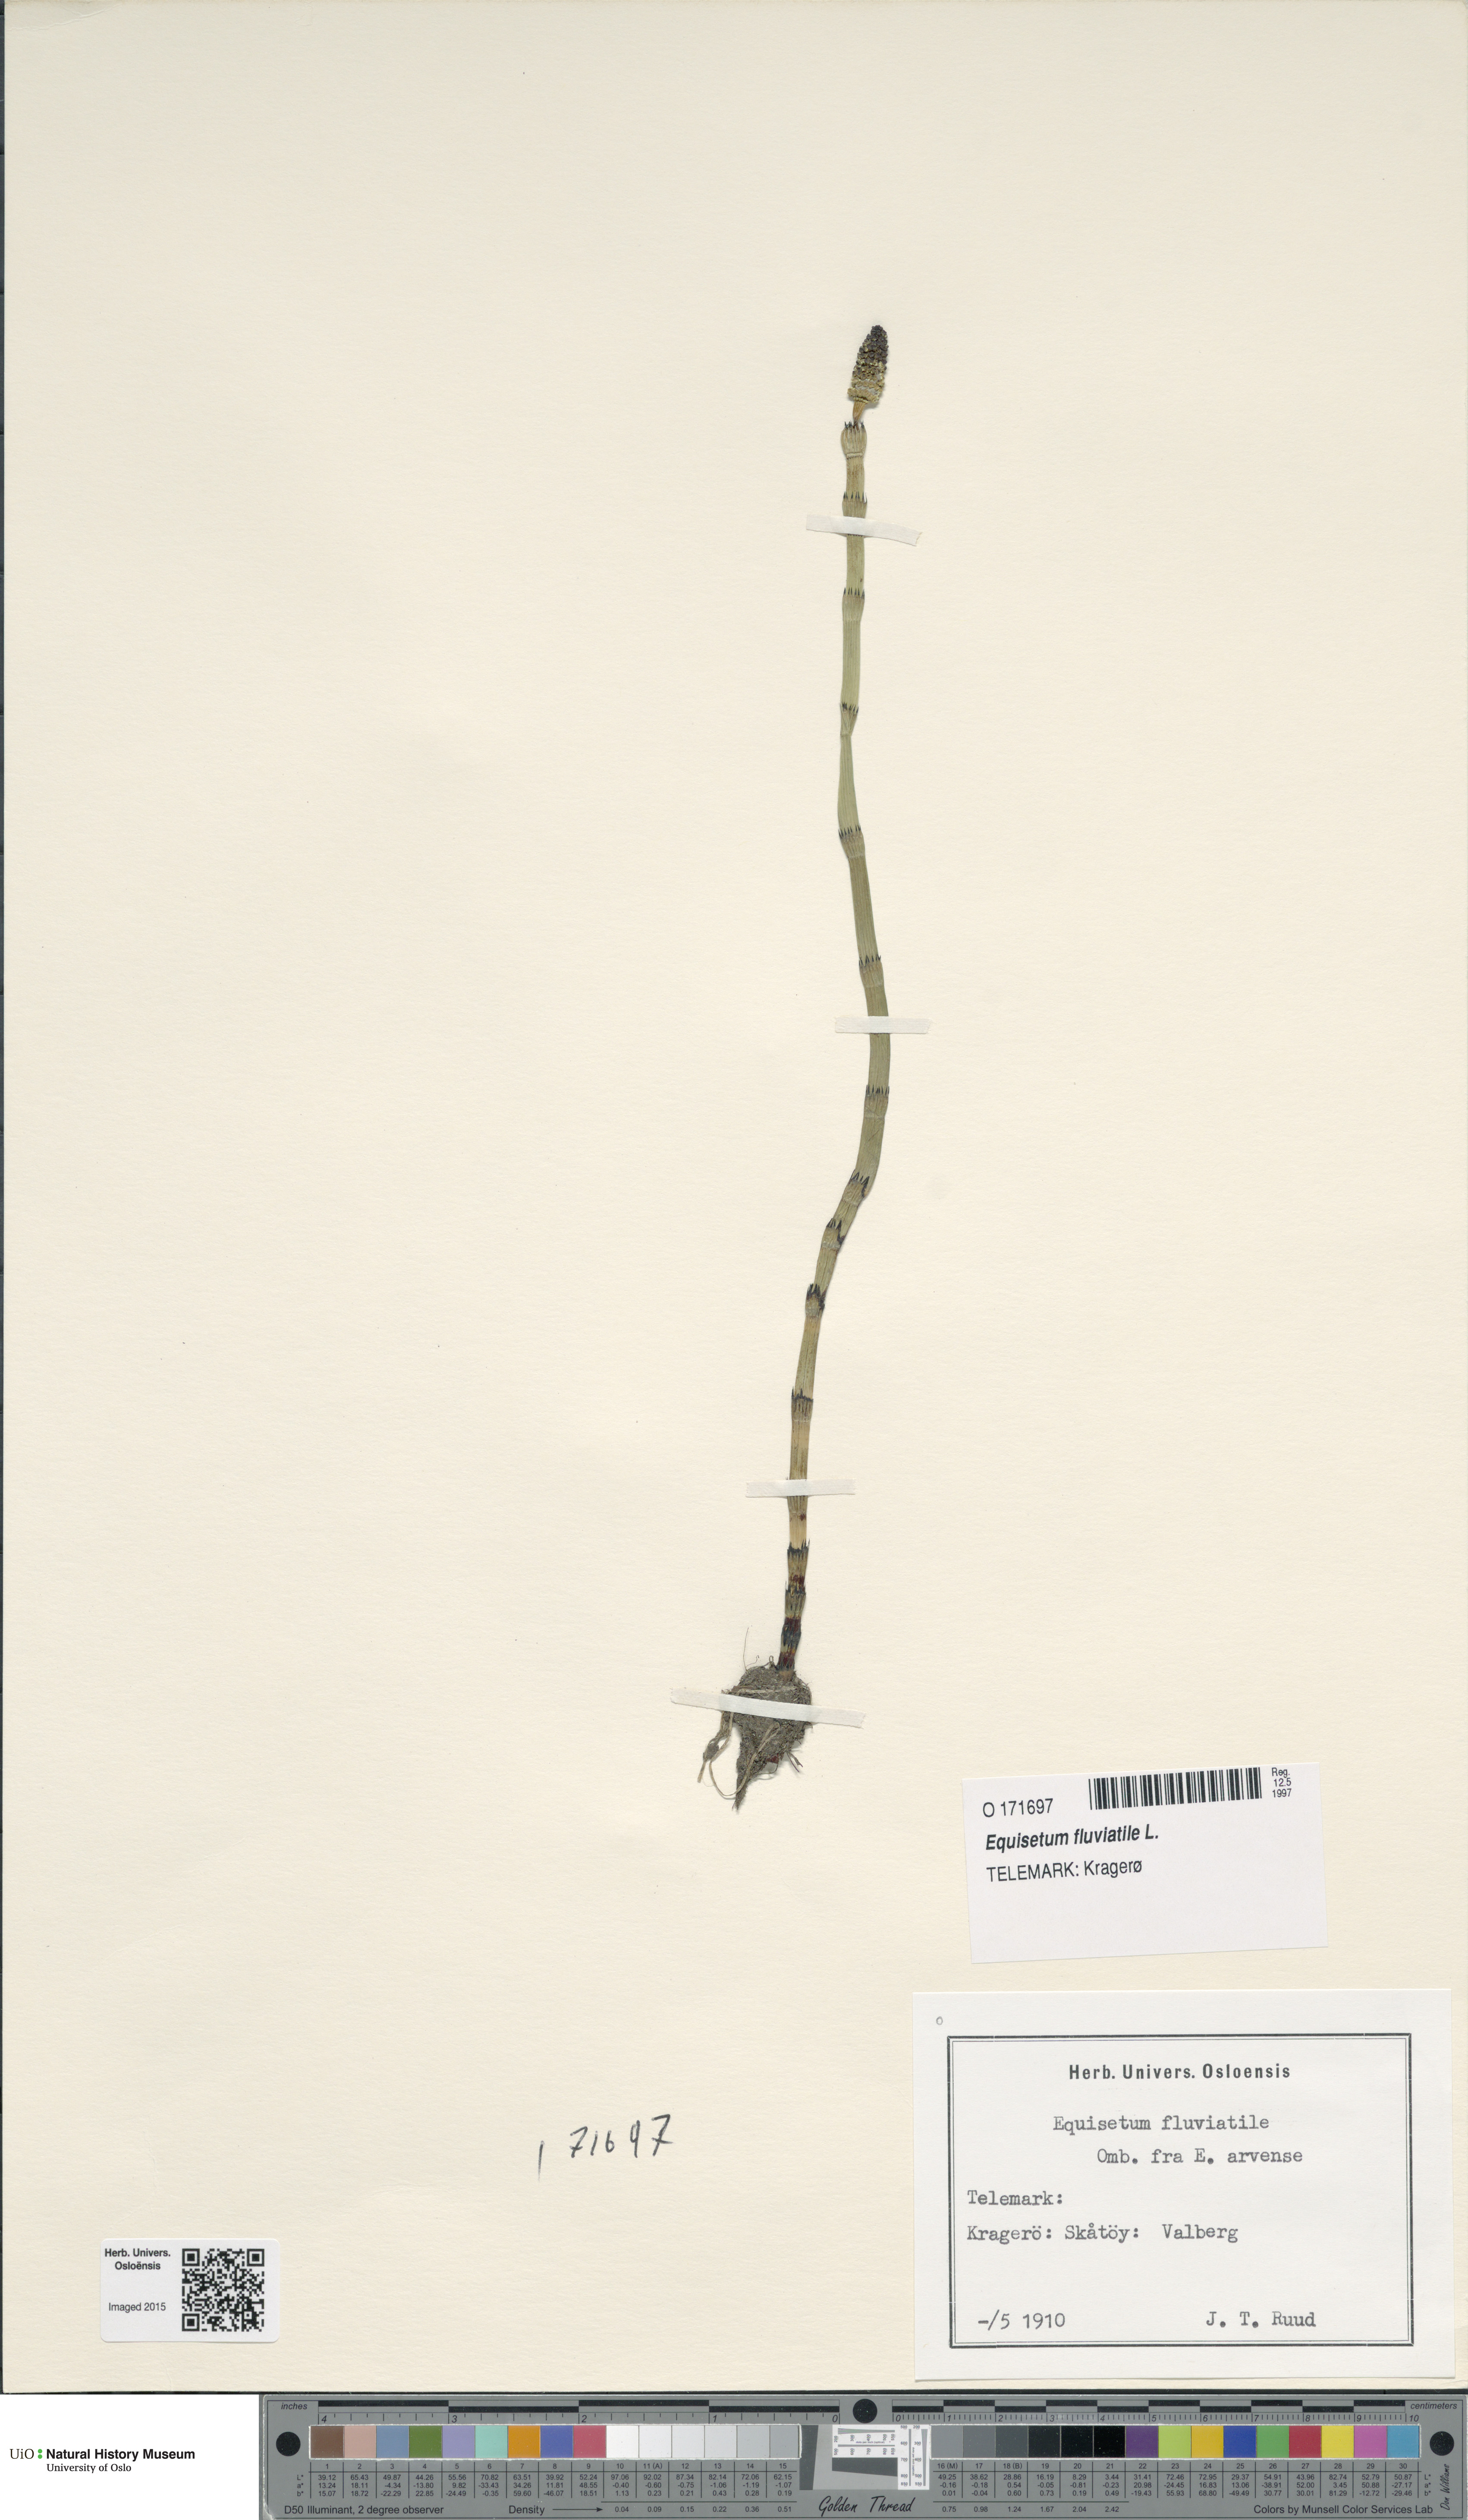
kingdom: Plantae
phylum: Tracheophyta
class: Polypodiopsida
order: Equisetales
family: Equisetaceae
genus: Equisetum
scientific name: Equisetum fluviatile
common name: Water horsetail
